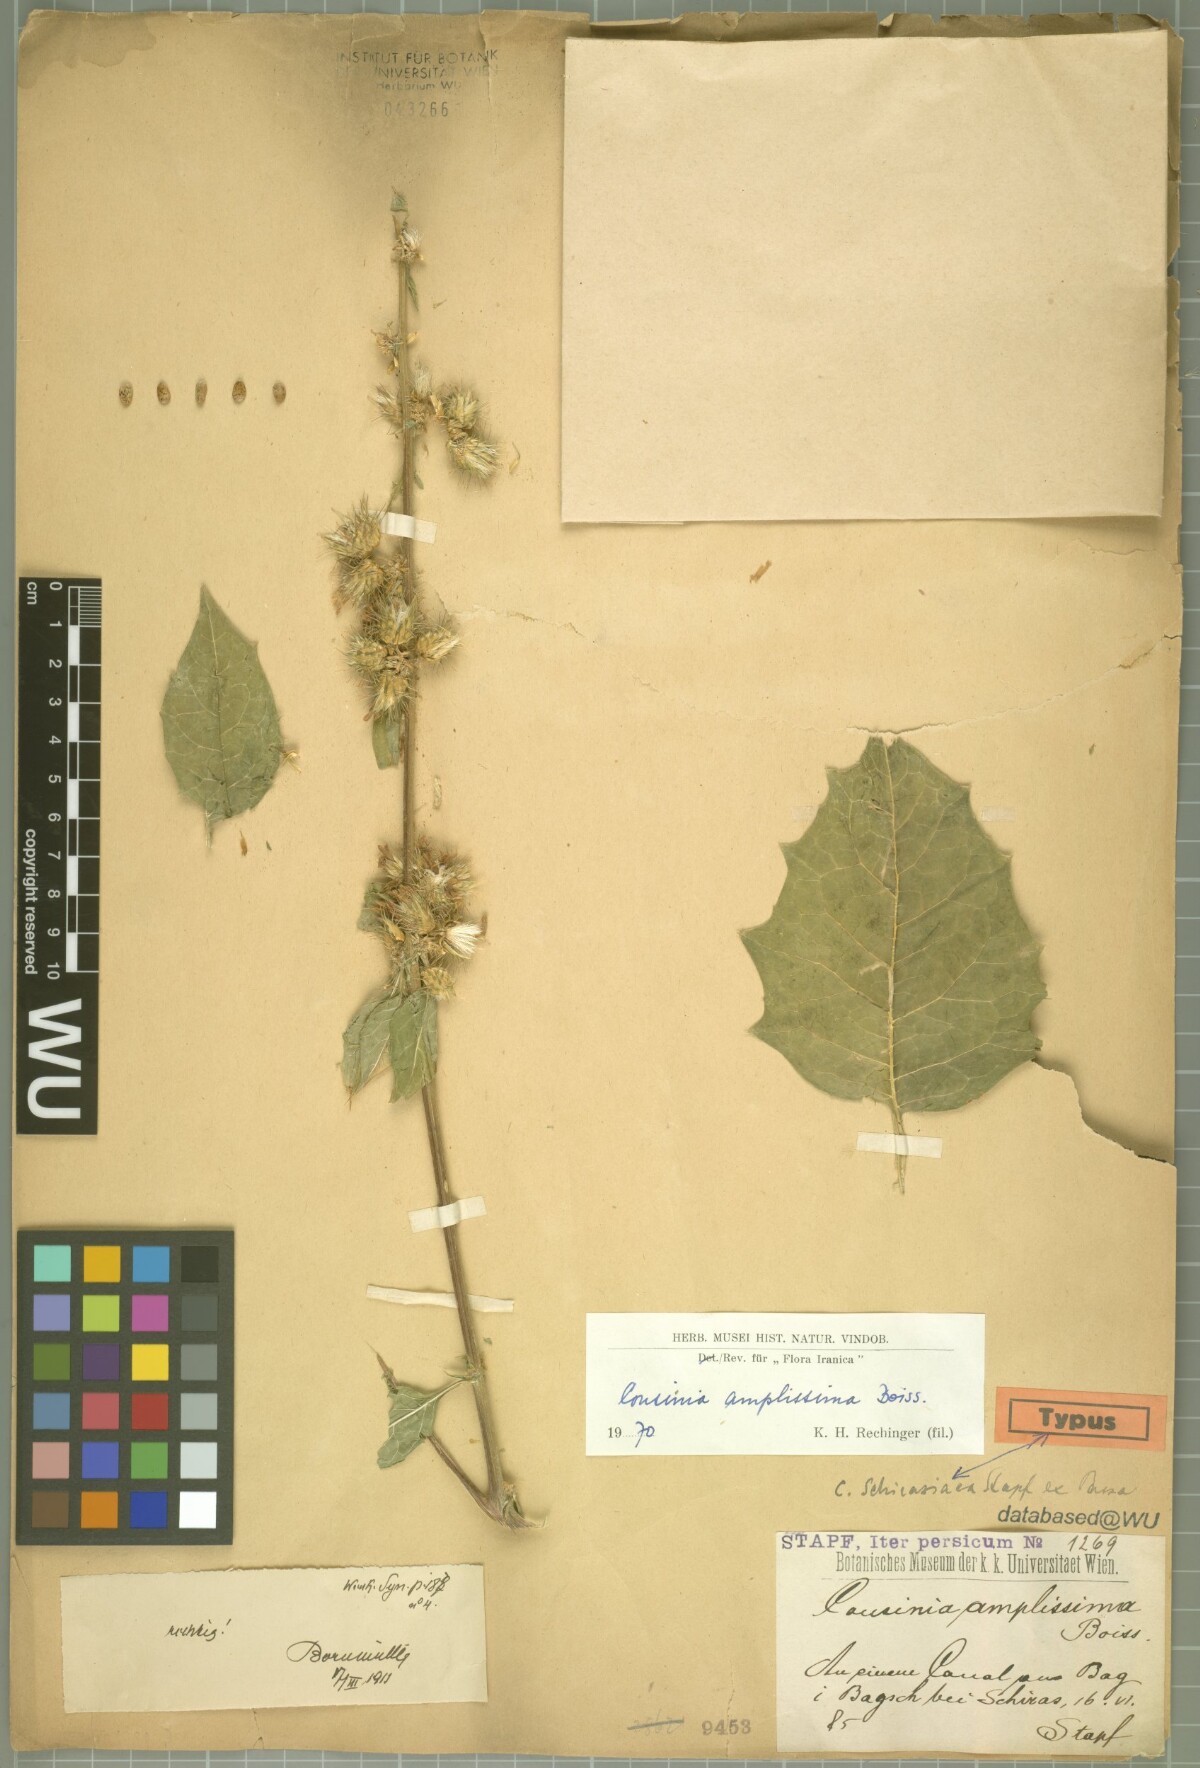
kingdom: Plantae
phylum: Tracheophyta
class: Magnoliopsida
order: Asterales
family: Asteraceae
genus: Arctium
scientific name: Arctium amplissimum
